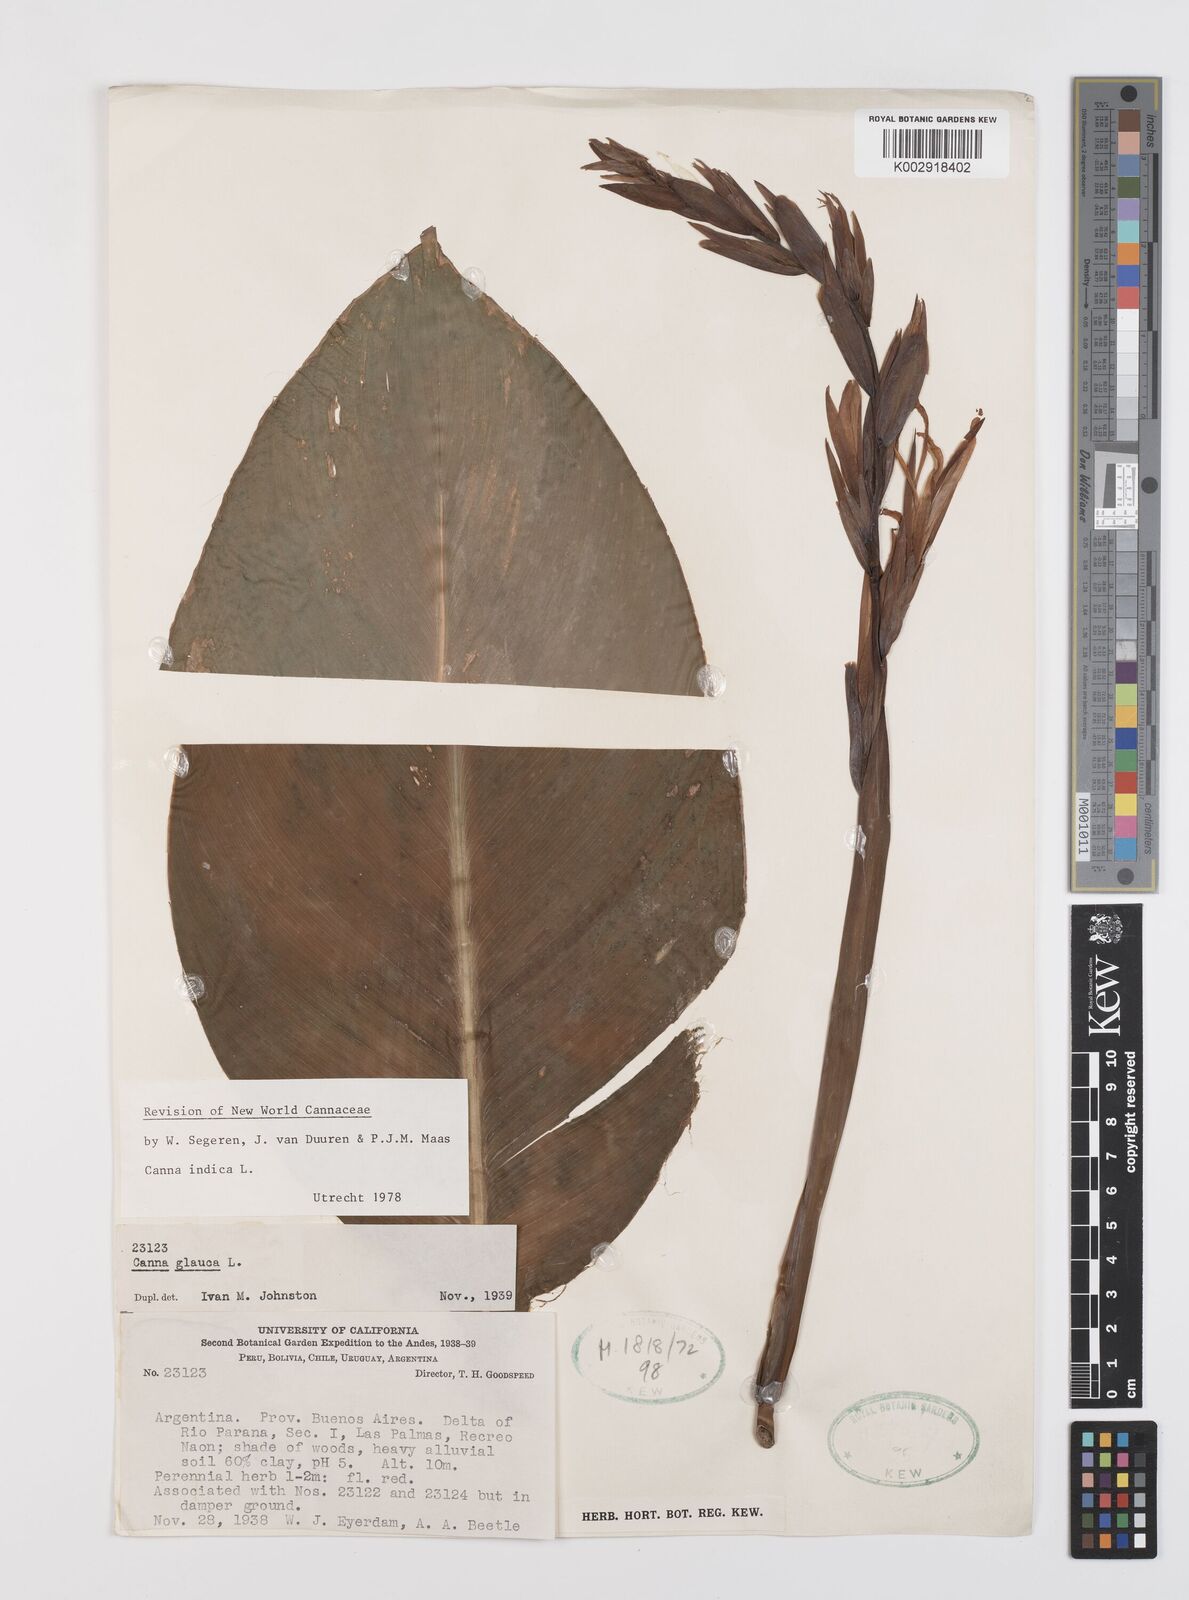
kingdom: Plantae
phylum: Tracheophyta
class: Liliopsida
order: Zingiberales
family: Cannaceae
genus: Canna
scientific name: Canna indica
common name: Indian shot
